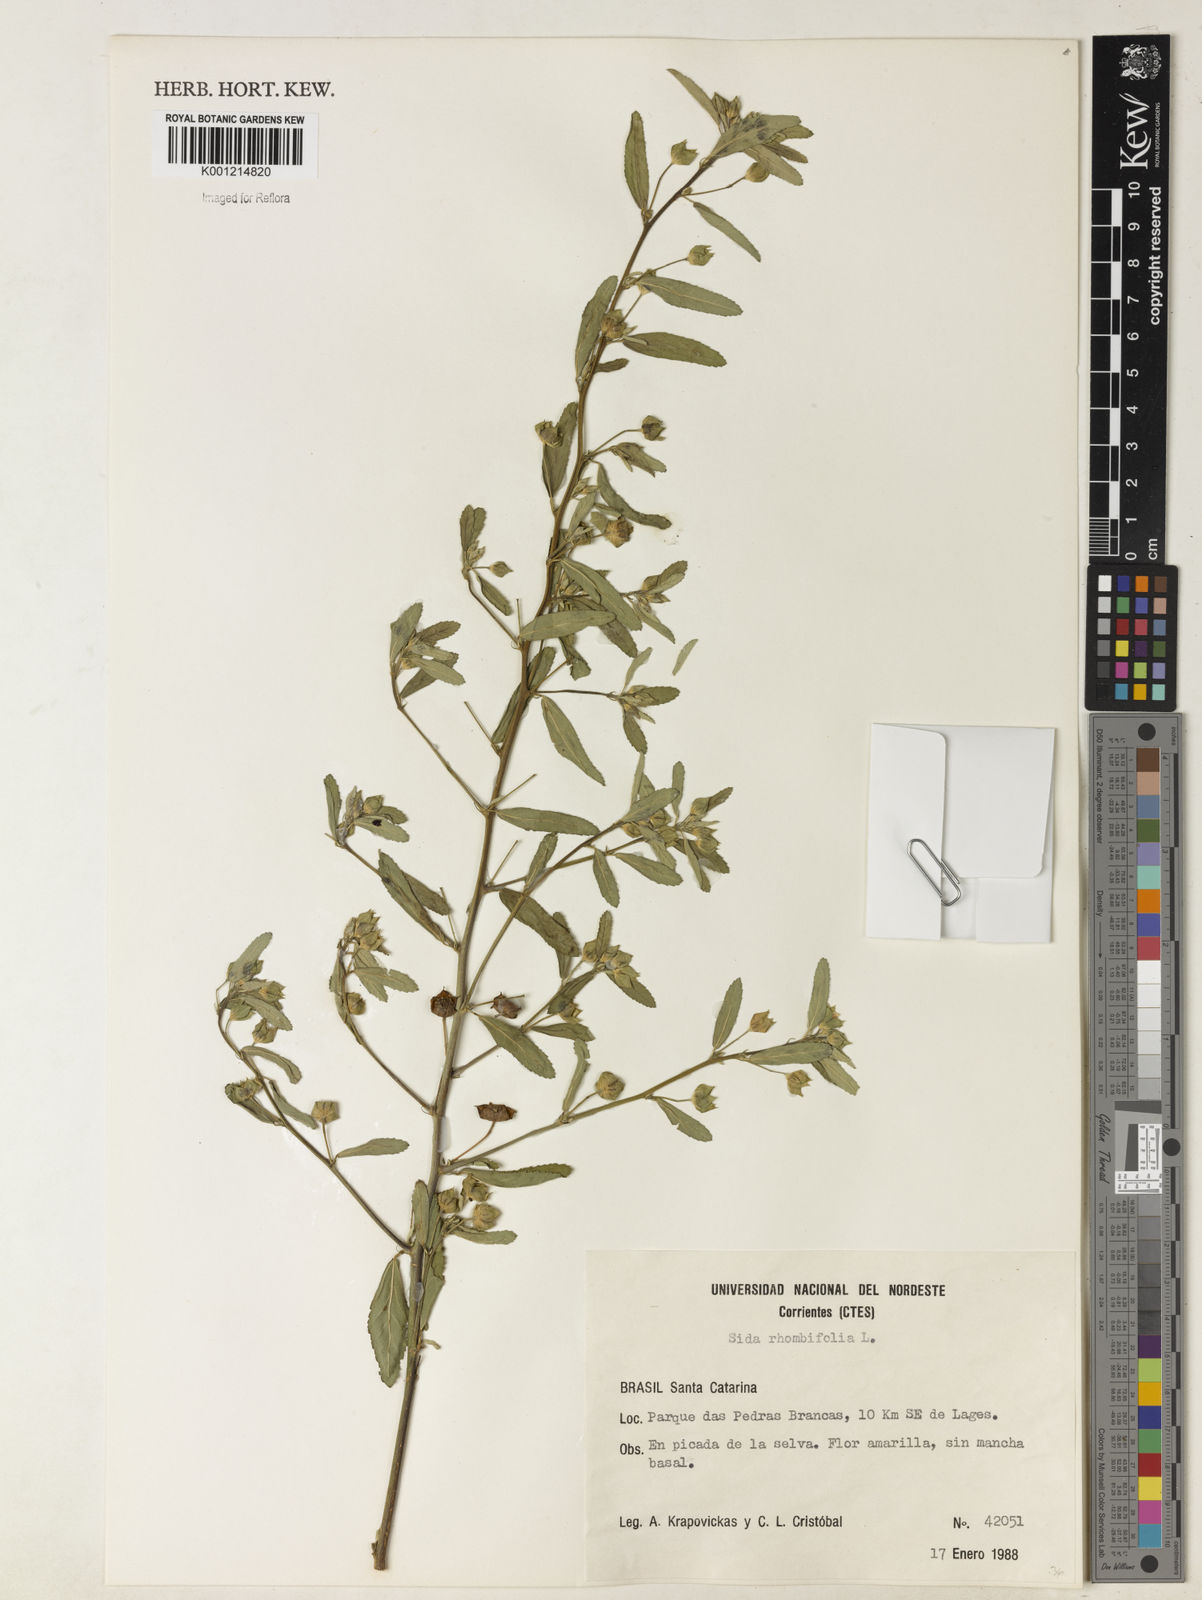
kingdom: Plantae
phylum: Tracheophyta
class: Magnoliopsida
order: Malvales
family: Malvaceae
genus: Sida
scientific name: Sida rhombifolia
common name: Queensland-hemp
